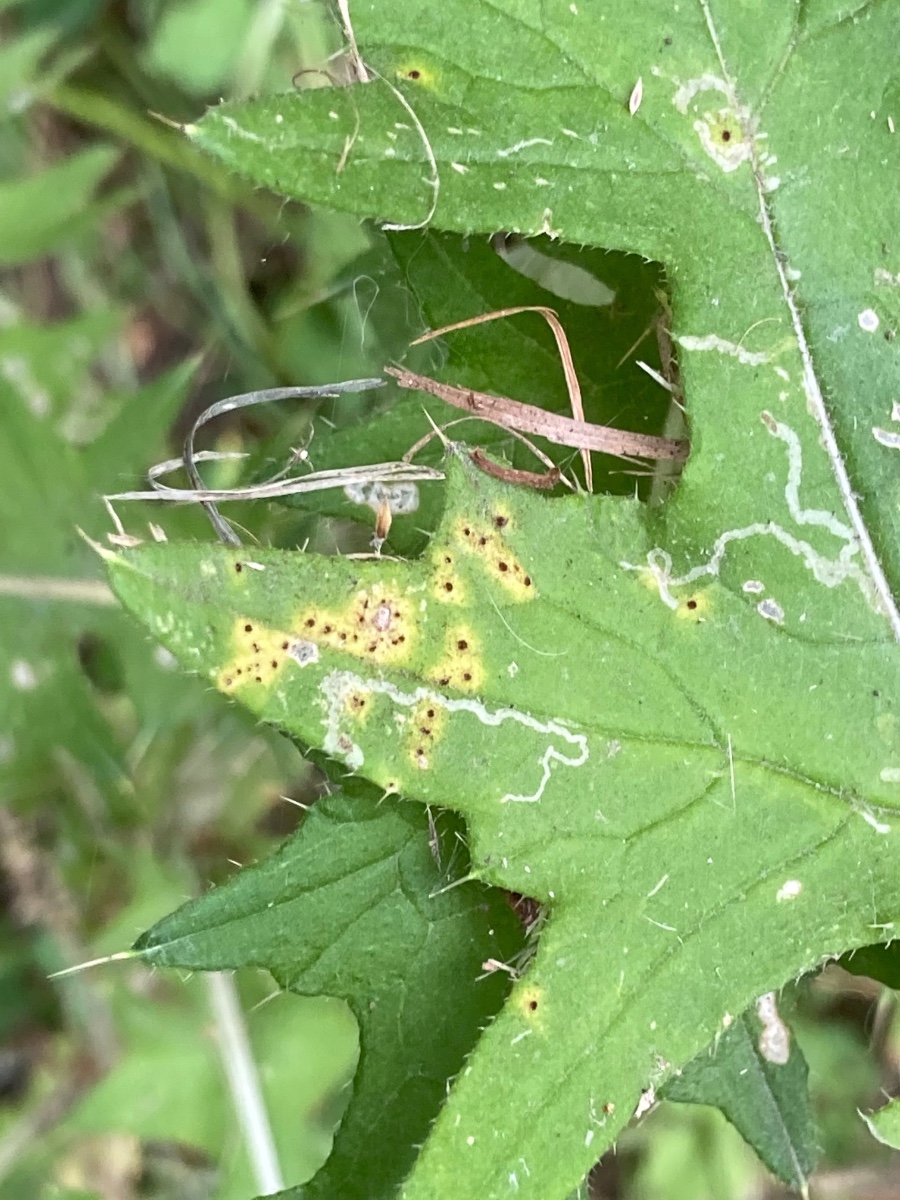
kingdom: Fungi
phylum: Basidiomycota
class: Pucciniomycetes
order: Pucciniales
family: Pucciniaceae
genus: Puccinia
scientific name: Puccinia cnici
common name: Rust fungus
